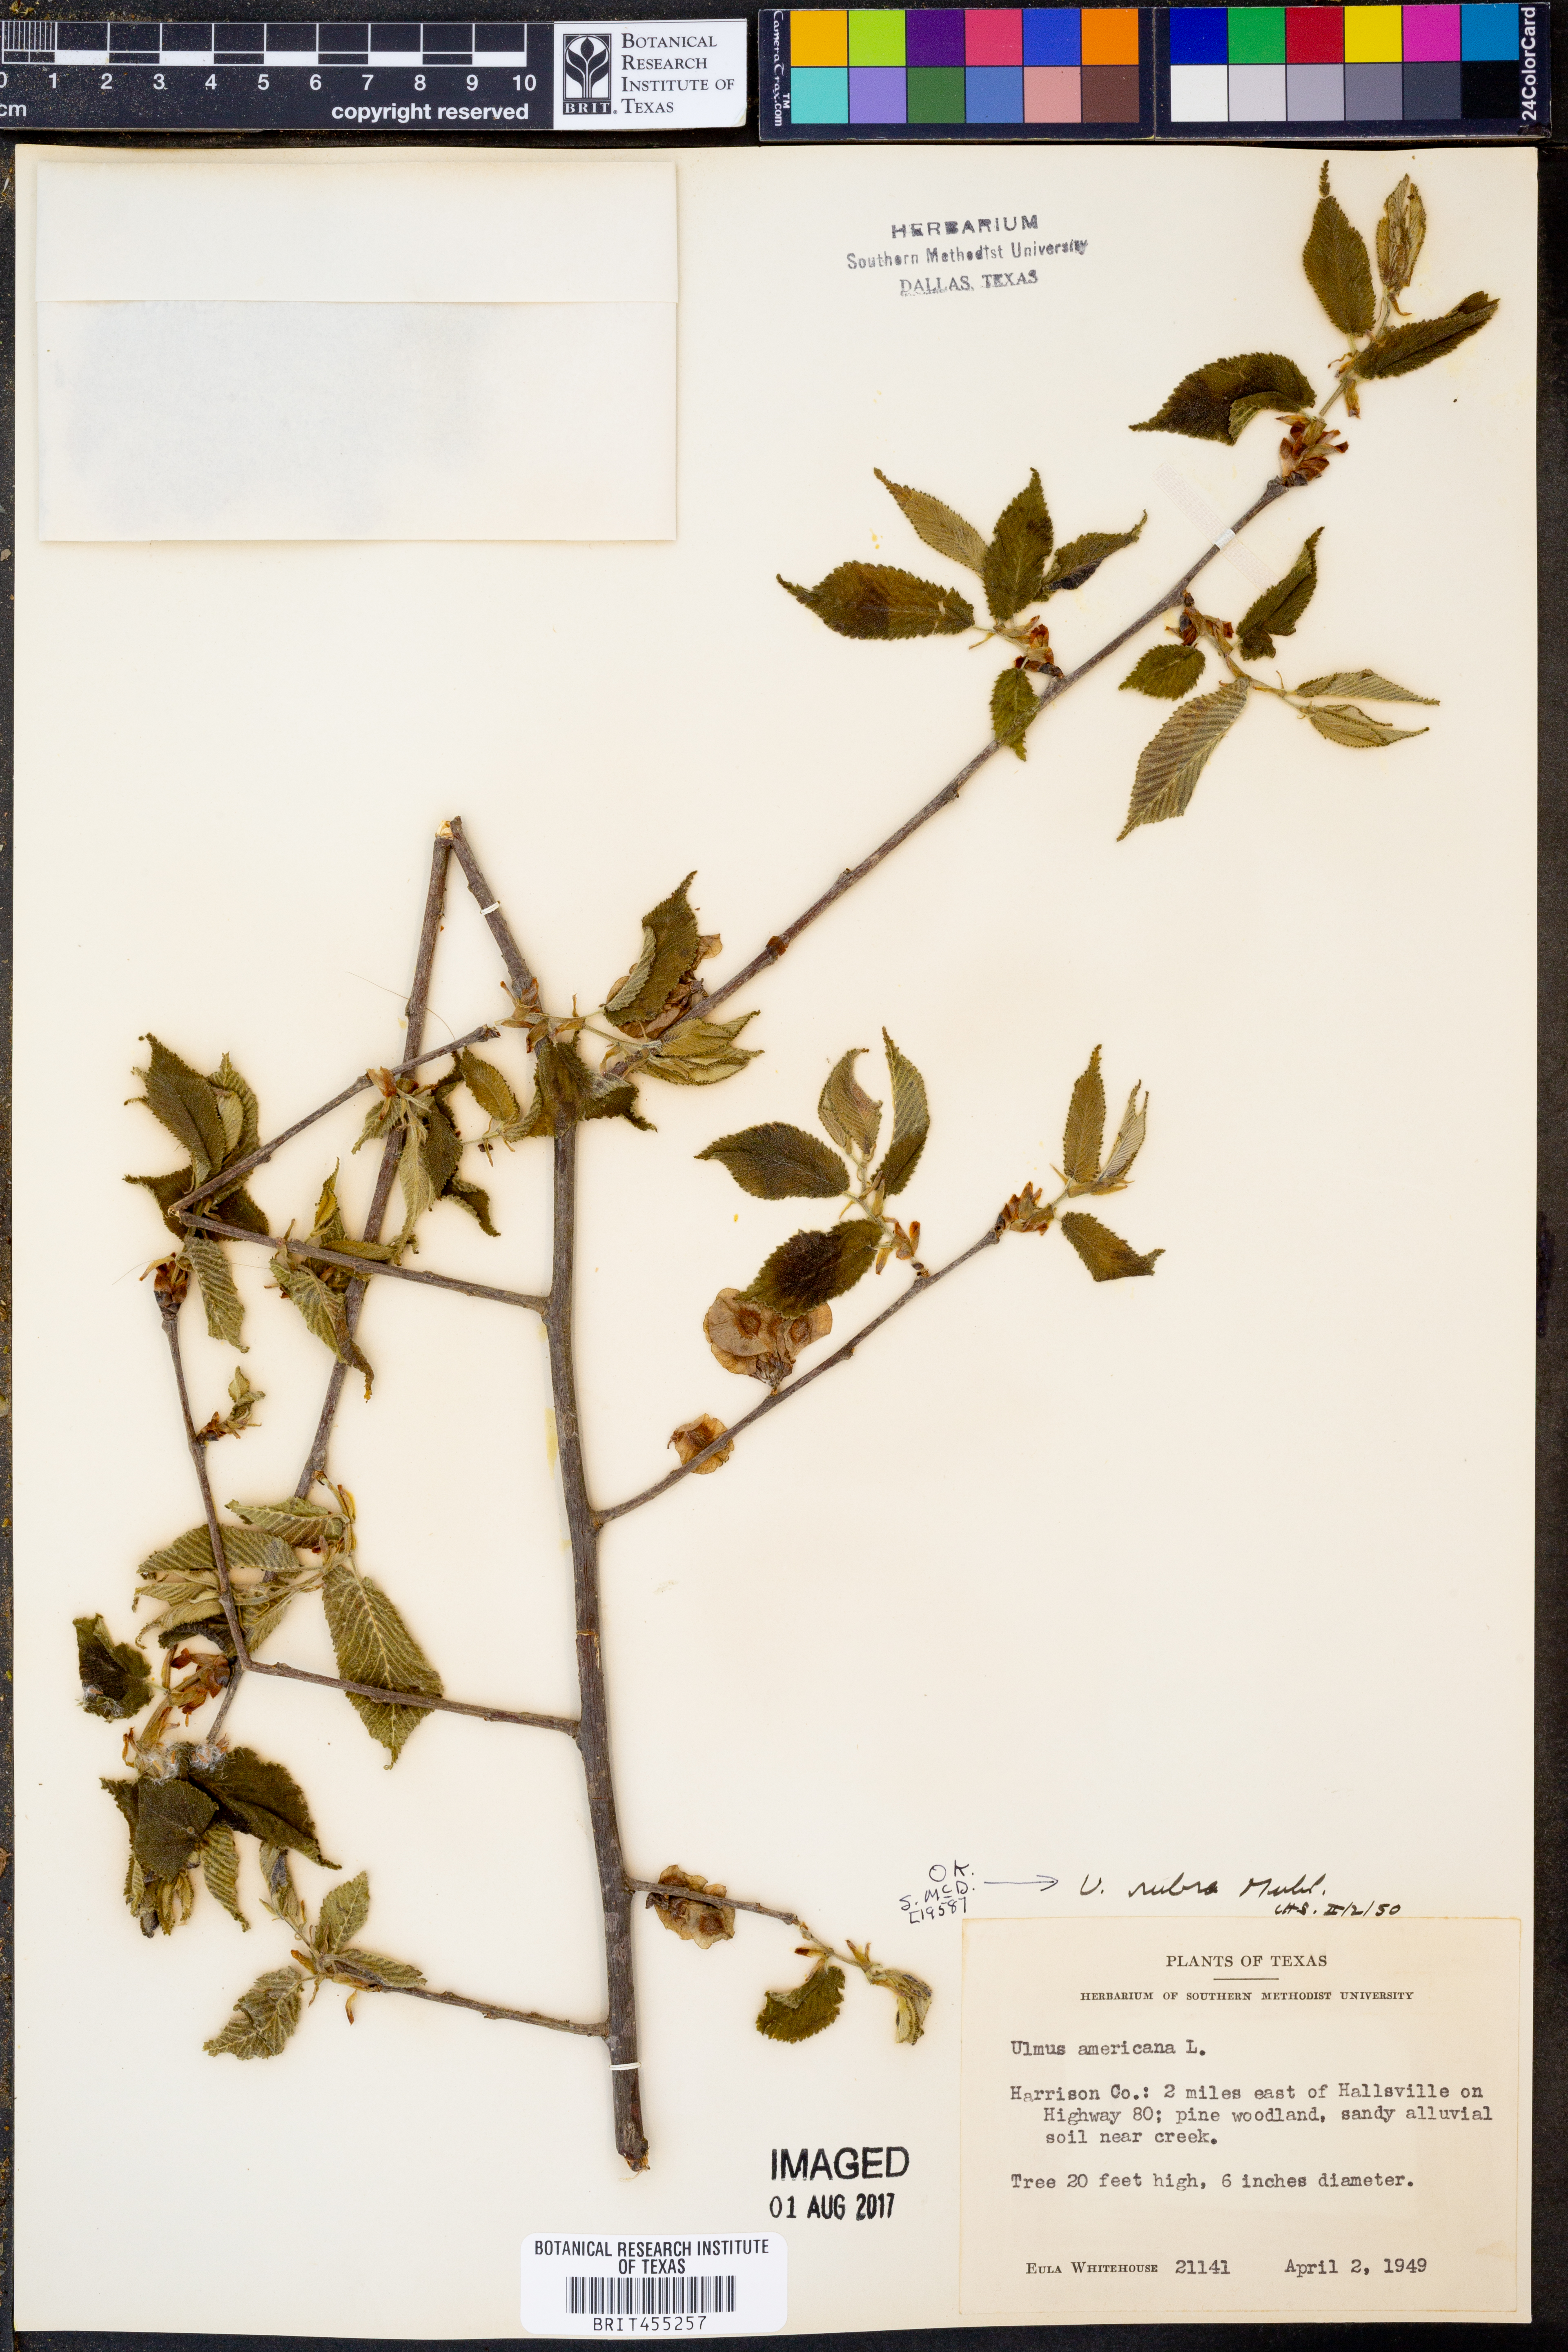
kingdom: Plantae
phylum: Tracheophyta
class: Magnoliopsida
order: Rosales
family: Ulmaceae
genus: Ulmus
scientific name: Ulmus americana
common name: American elm
